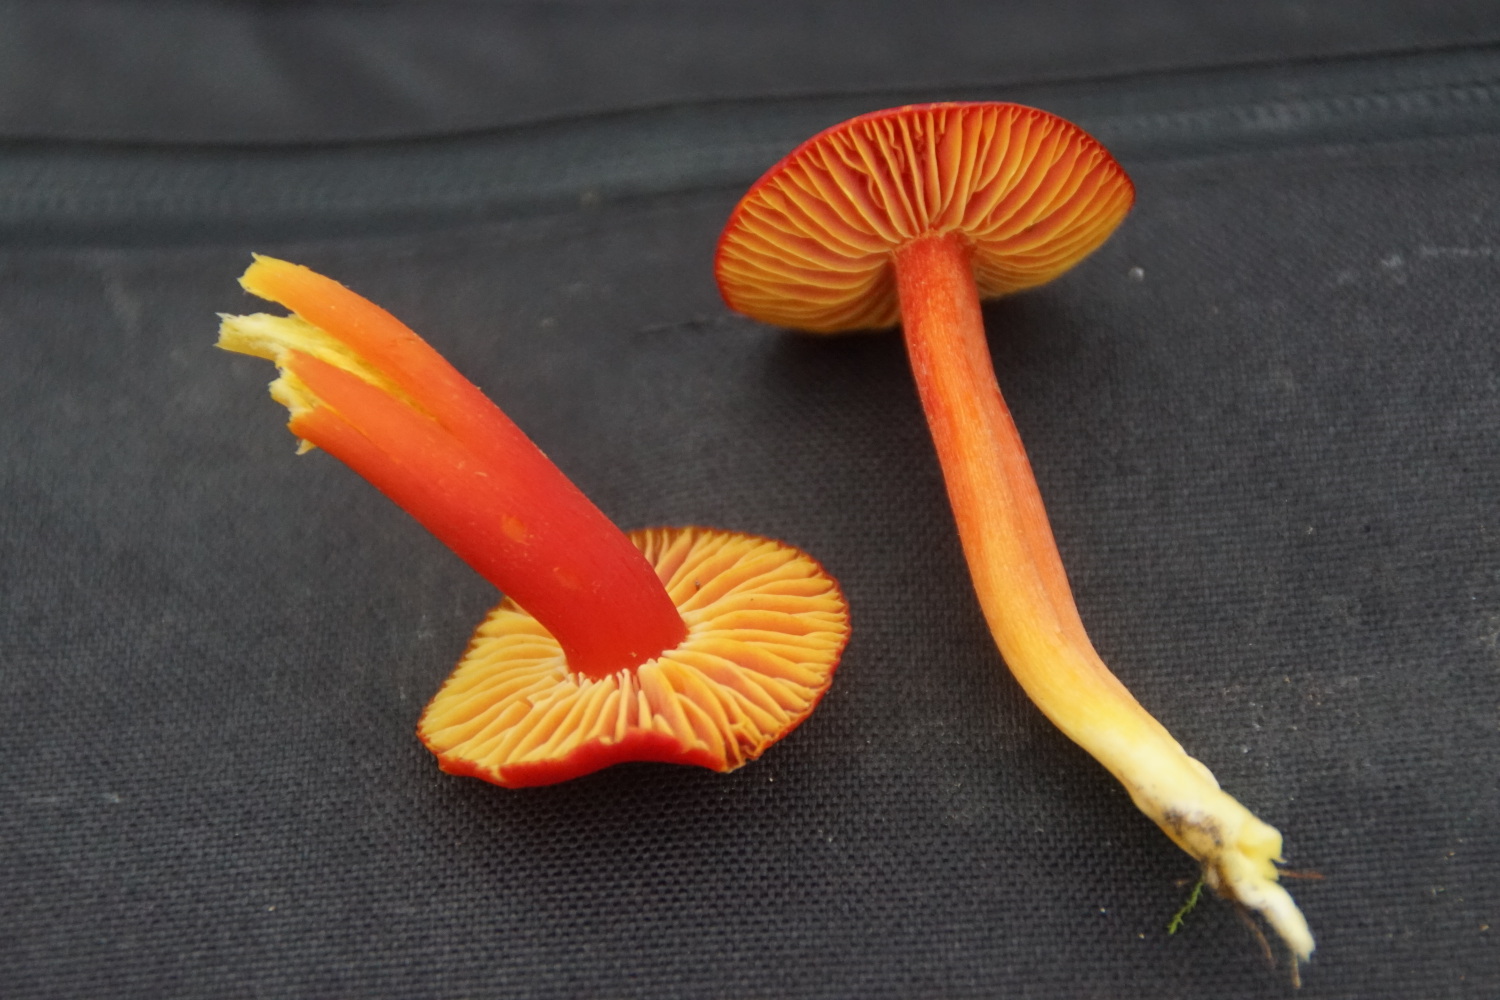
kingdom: Fungi
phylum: Basidiomycota
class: Agaricomycetes
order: Agaricales
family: Hygrophoraceae
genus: Hygrocybe
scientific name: Hygrocybe splendidissima
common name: knaldrød vokshat
